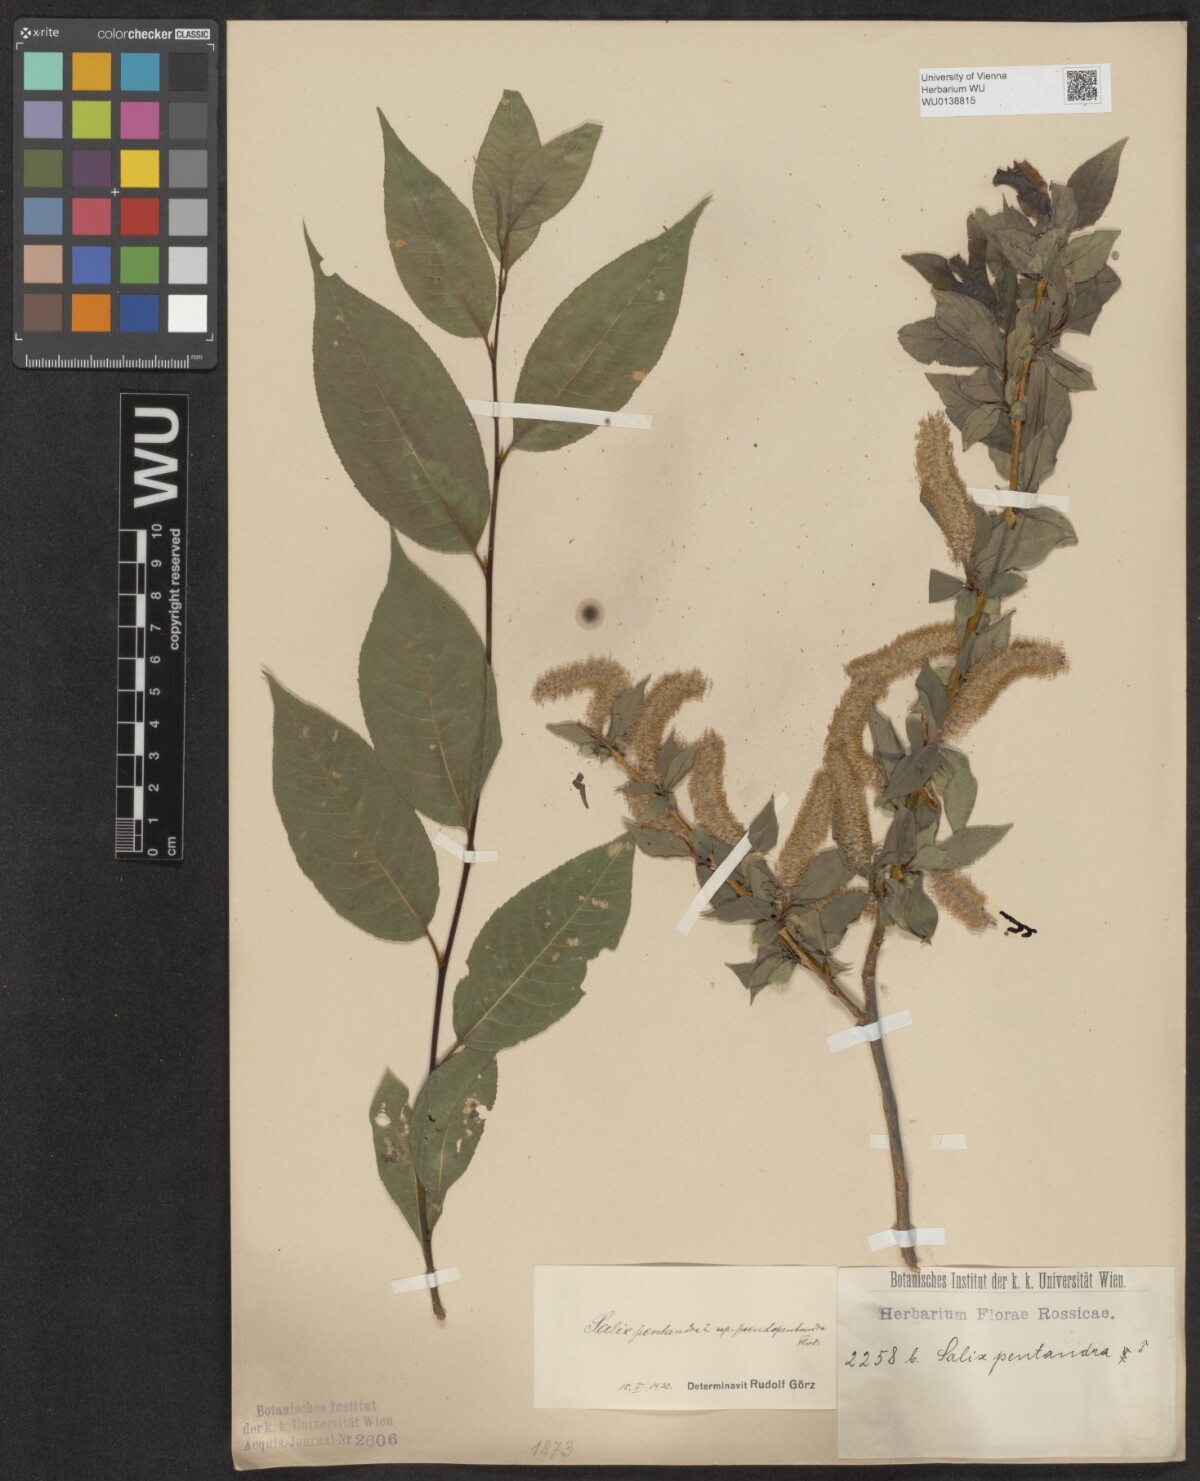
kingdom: Plantae
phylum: Tracheophyta
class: Magnoliopsida
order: Malpighiales
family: Salicaceae
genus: Salix
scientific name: Salix pentandra
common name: Bay willow
